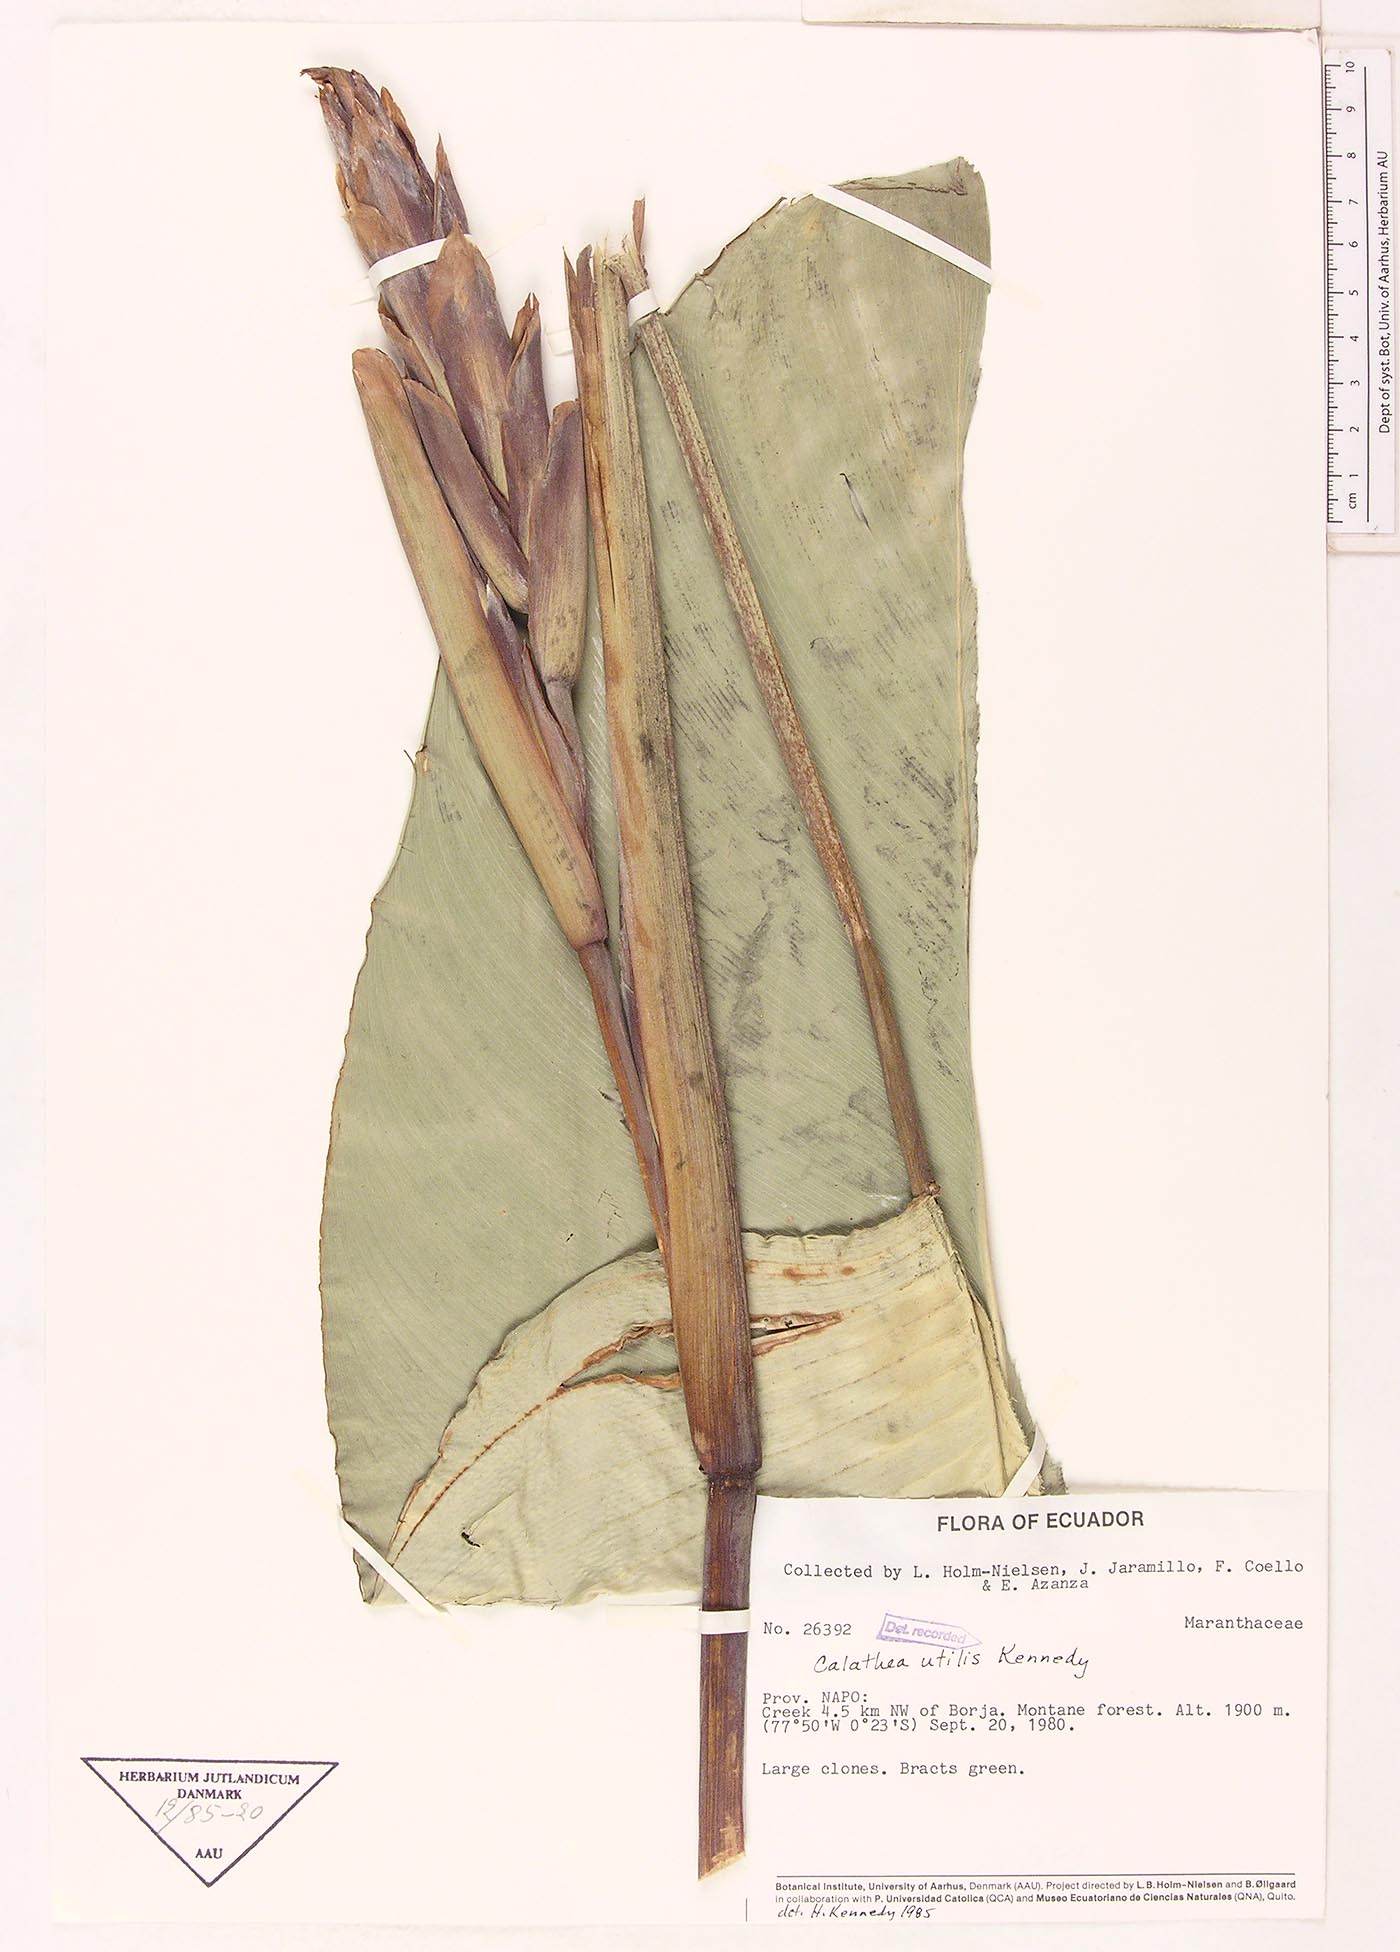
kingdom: Plantae
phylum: Tracheophyta
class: Liliopsida
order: Zingiberales
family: Marantaceae
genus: Calathea
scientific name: Calathea utilis
